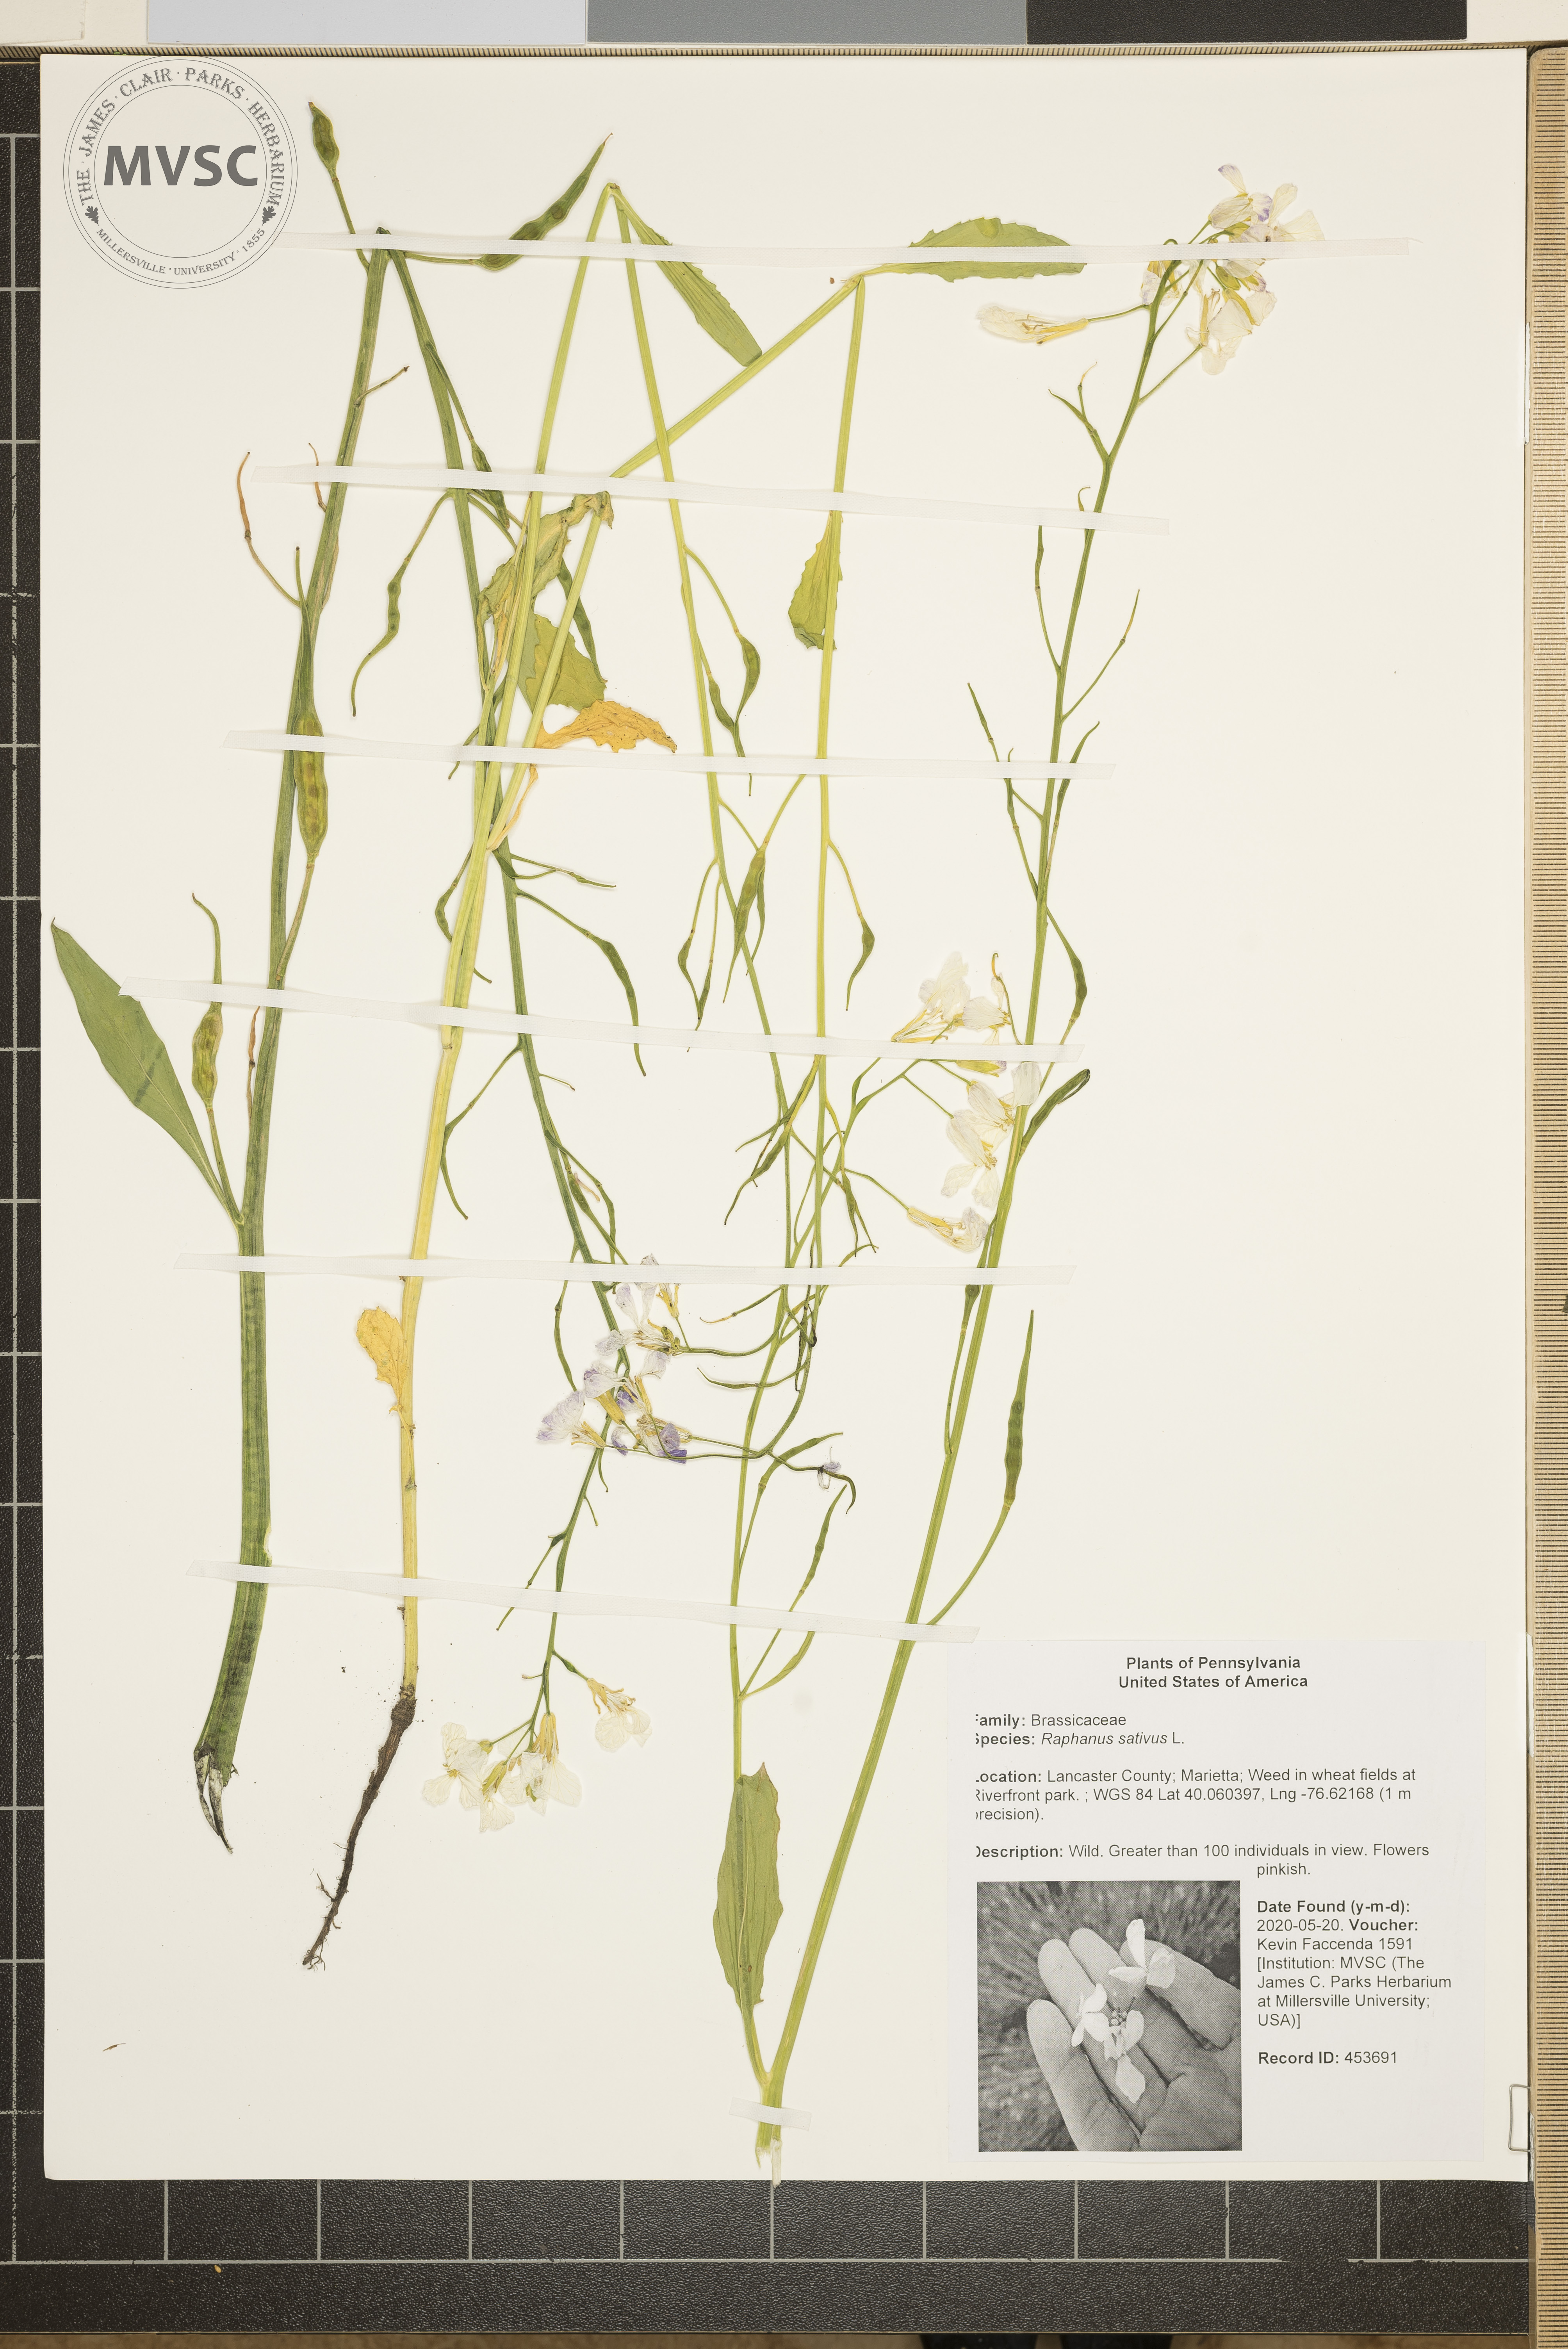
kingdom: Plantae
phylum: Tracheophyta
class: Magnoliopsida
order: Brassicales
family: Brassicaceae
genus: Raphanus
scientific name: Raphanus sativus
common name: Cultivated radish
